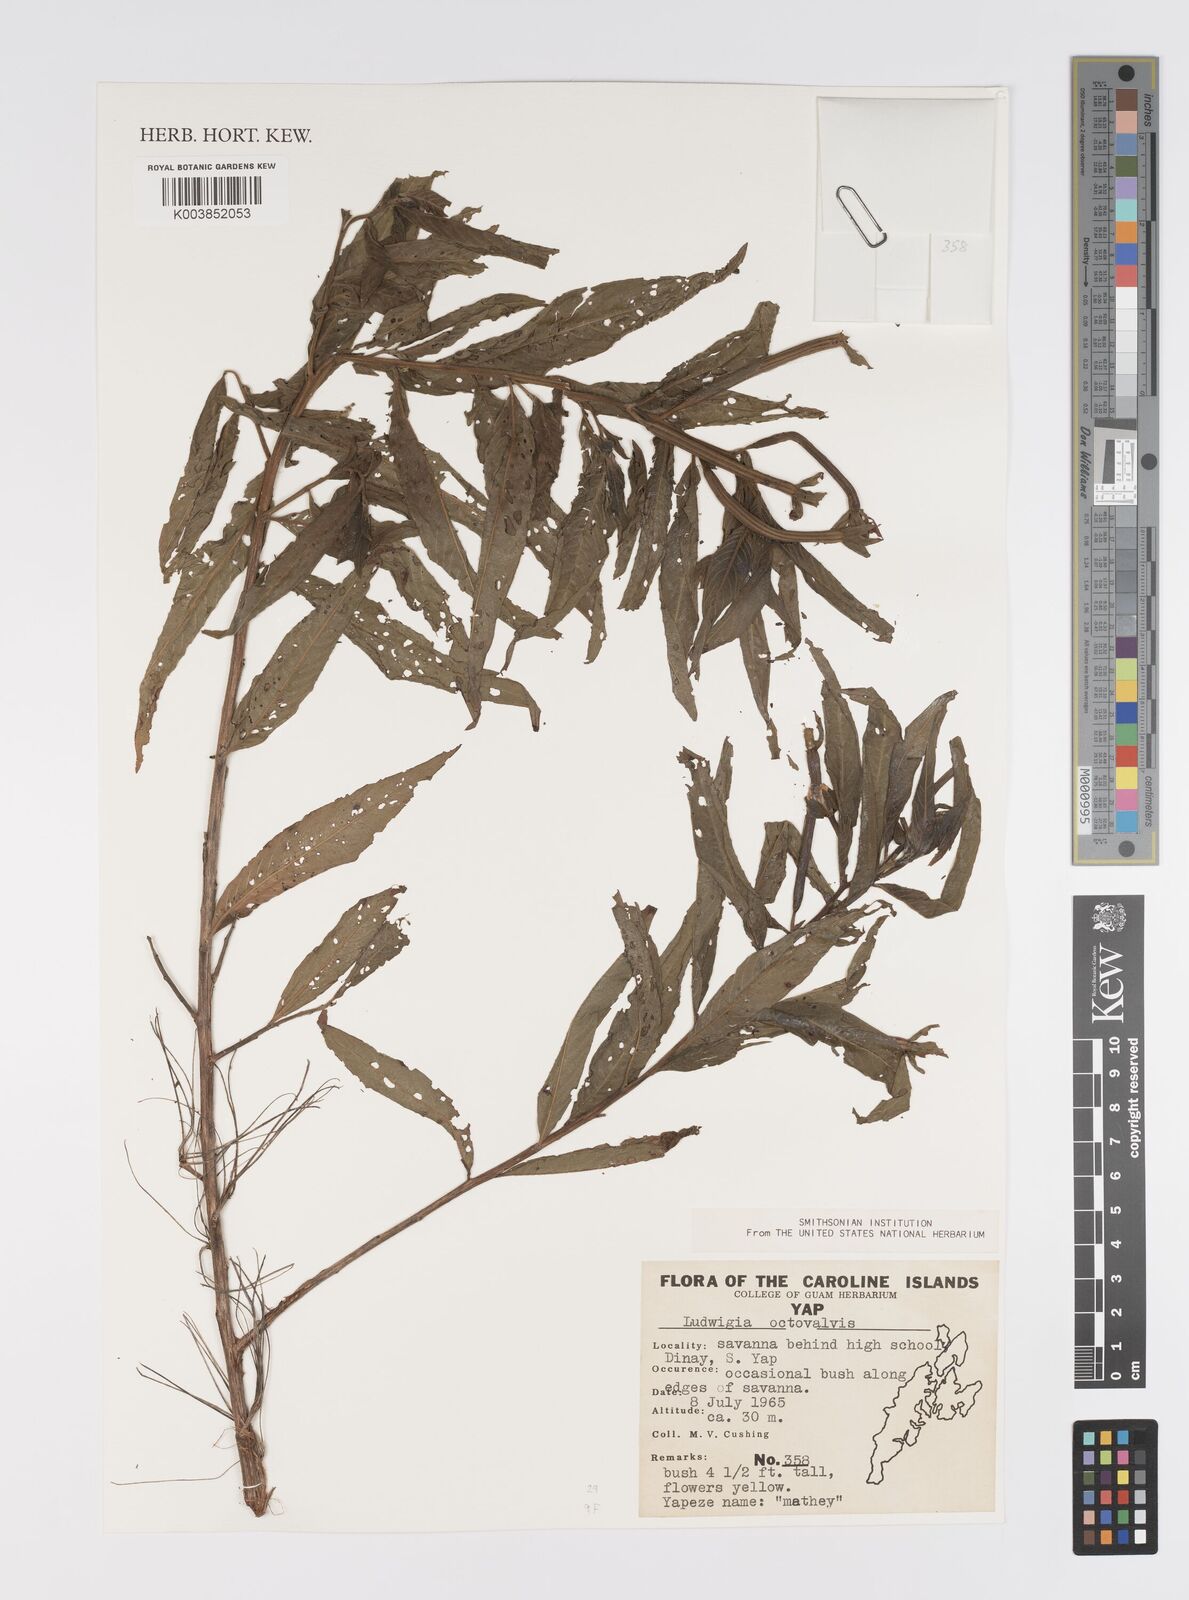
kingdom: Plantae
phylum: Tracheophyta
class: Magnoliopsida
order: Myrtales
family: Onagraceae
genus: Ludwigia
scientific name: Ludwigia octovalvis
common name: Water-primrose
